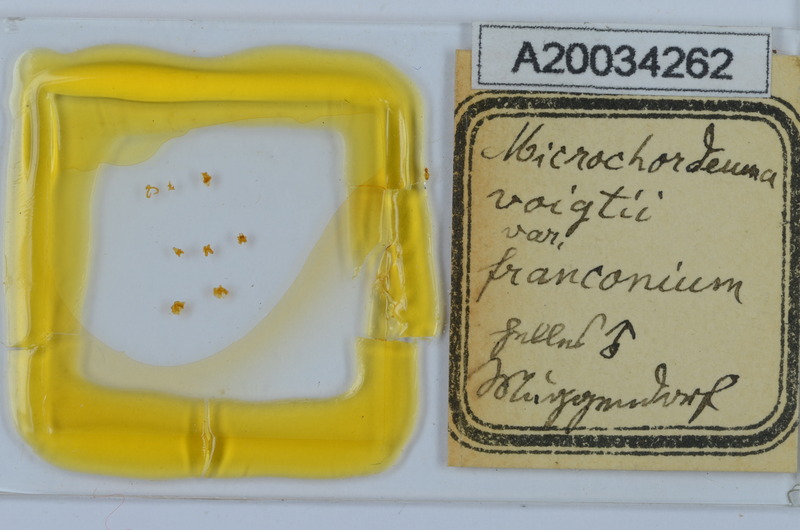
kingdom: Animalia
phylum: Arthropoda
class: Diplopoda
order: Chordeumatida
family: Chordeumatidae
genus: Melogona
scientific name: Melogona voigtii
